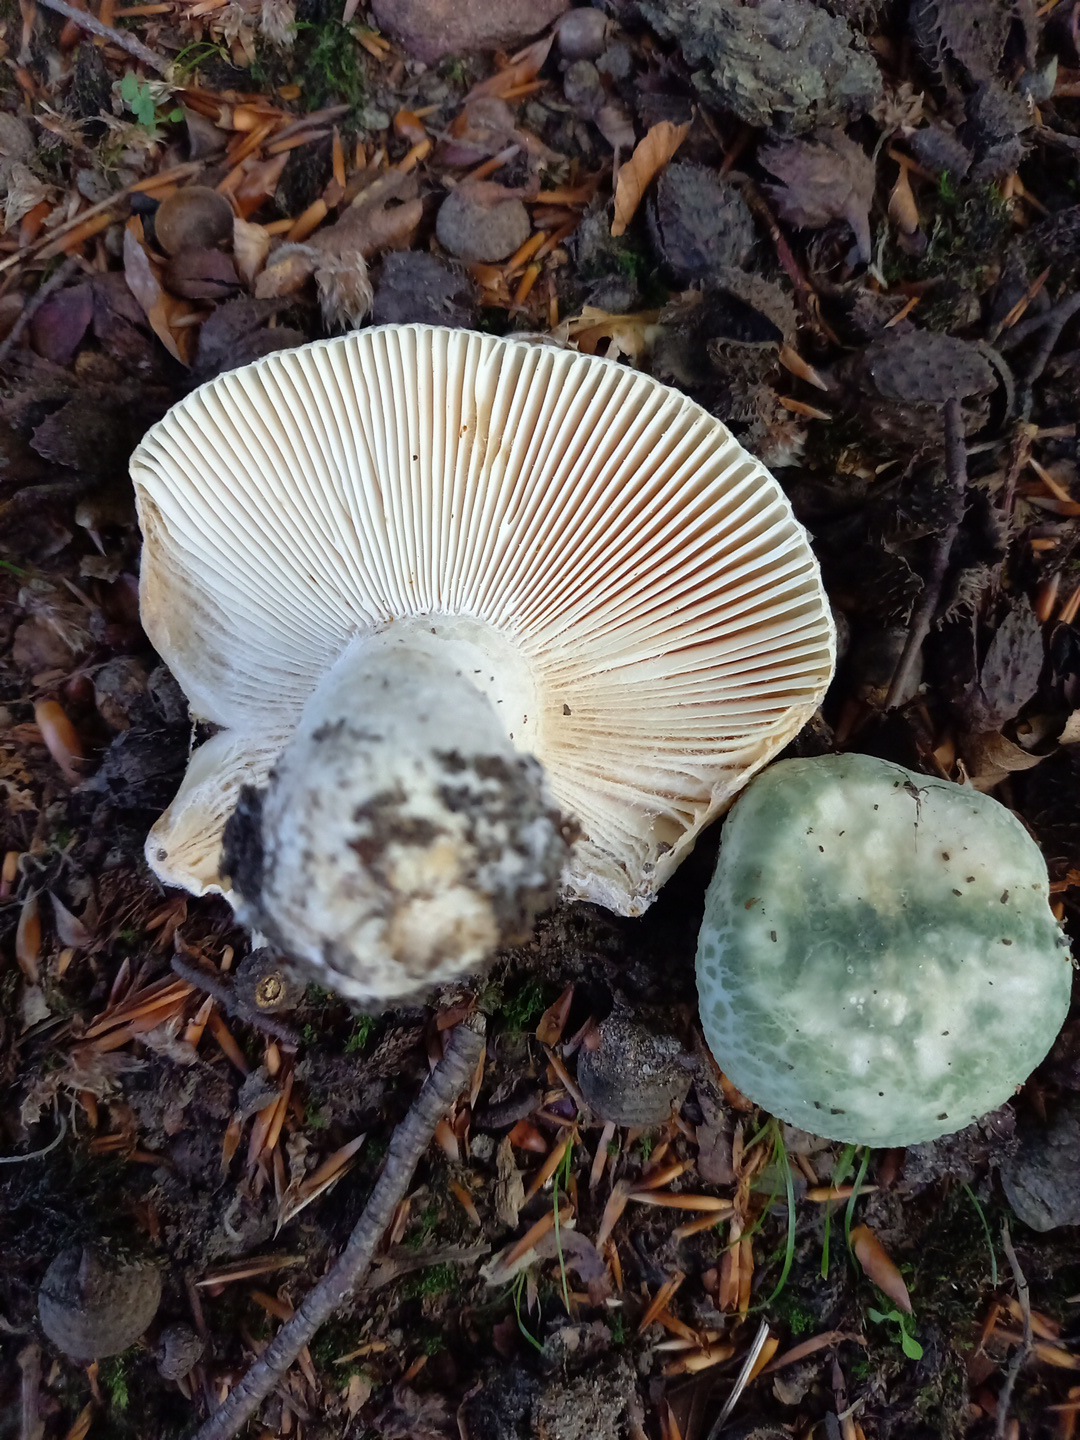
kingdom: Fungi
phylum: Basidiomycota
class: Agaricomycetes
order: Russulales
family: Russulaceae
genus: Russula
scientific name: Russula virescens
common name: spanskgrøn skørhat
